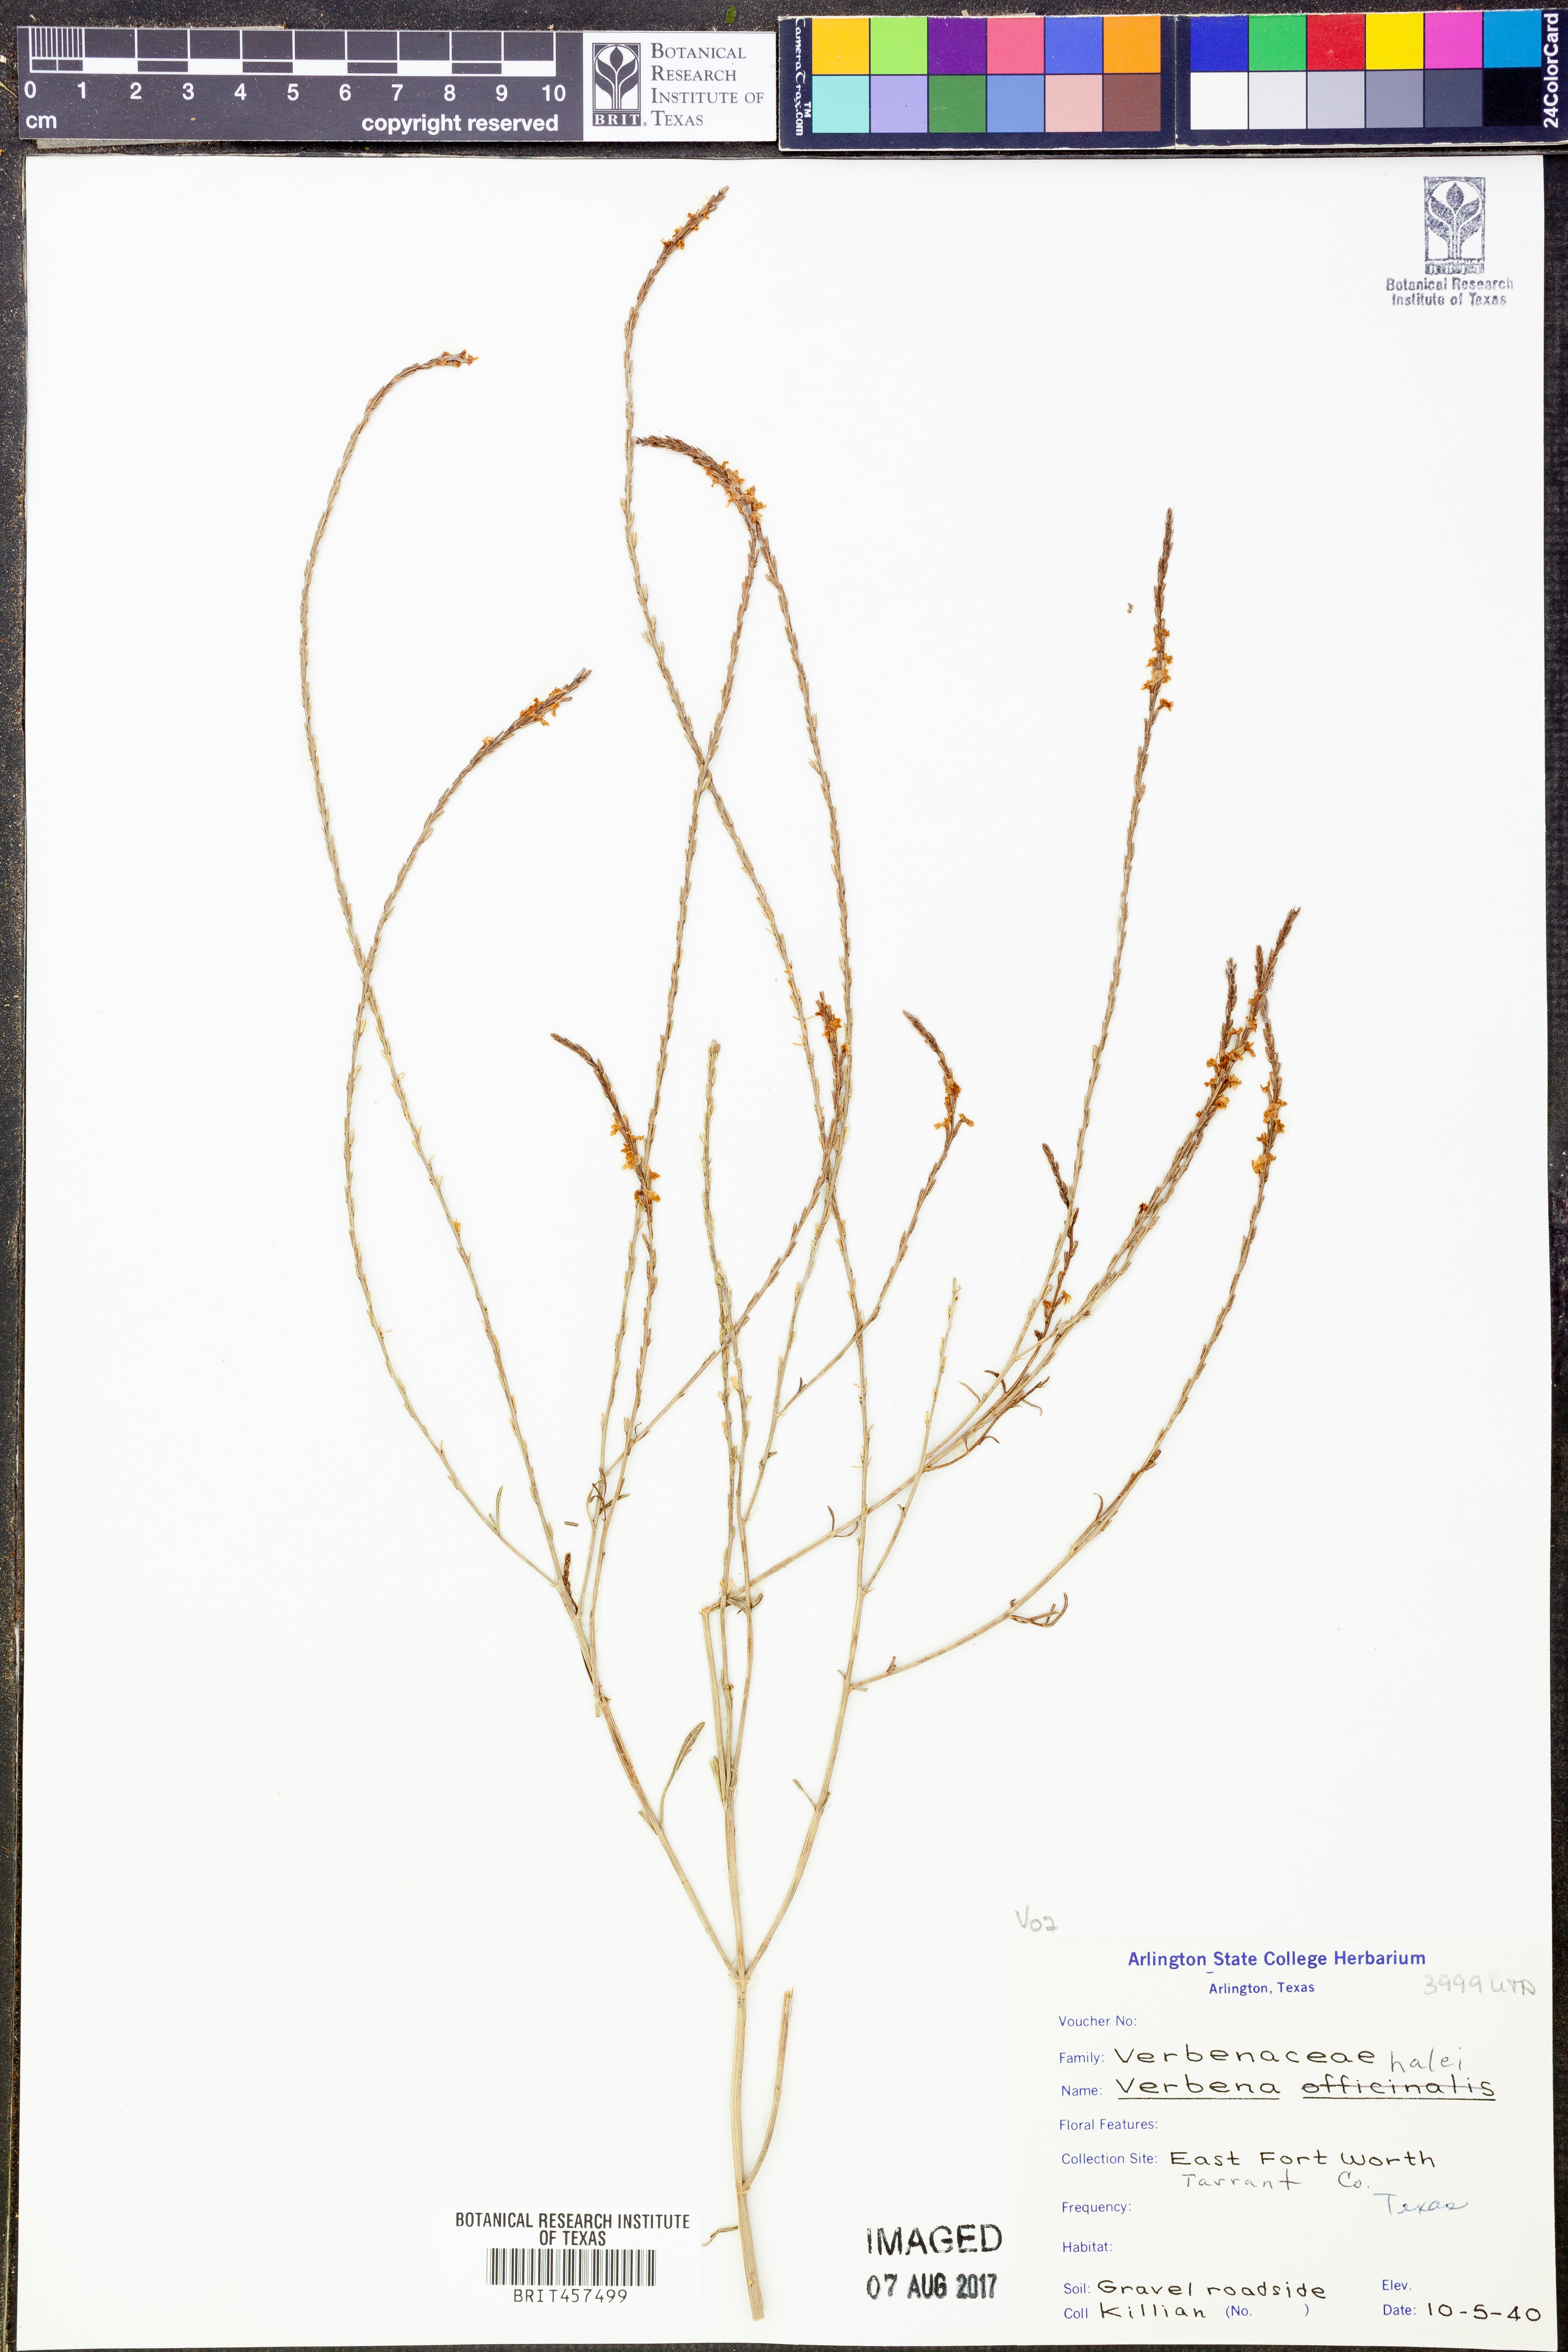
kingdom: Plantae
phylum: Tracheophyta
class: Magnoliopsida
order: Lamiales
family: Verbenaceae
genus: Verbena
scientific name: Verbena halei
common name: Texas vervain
